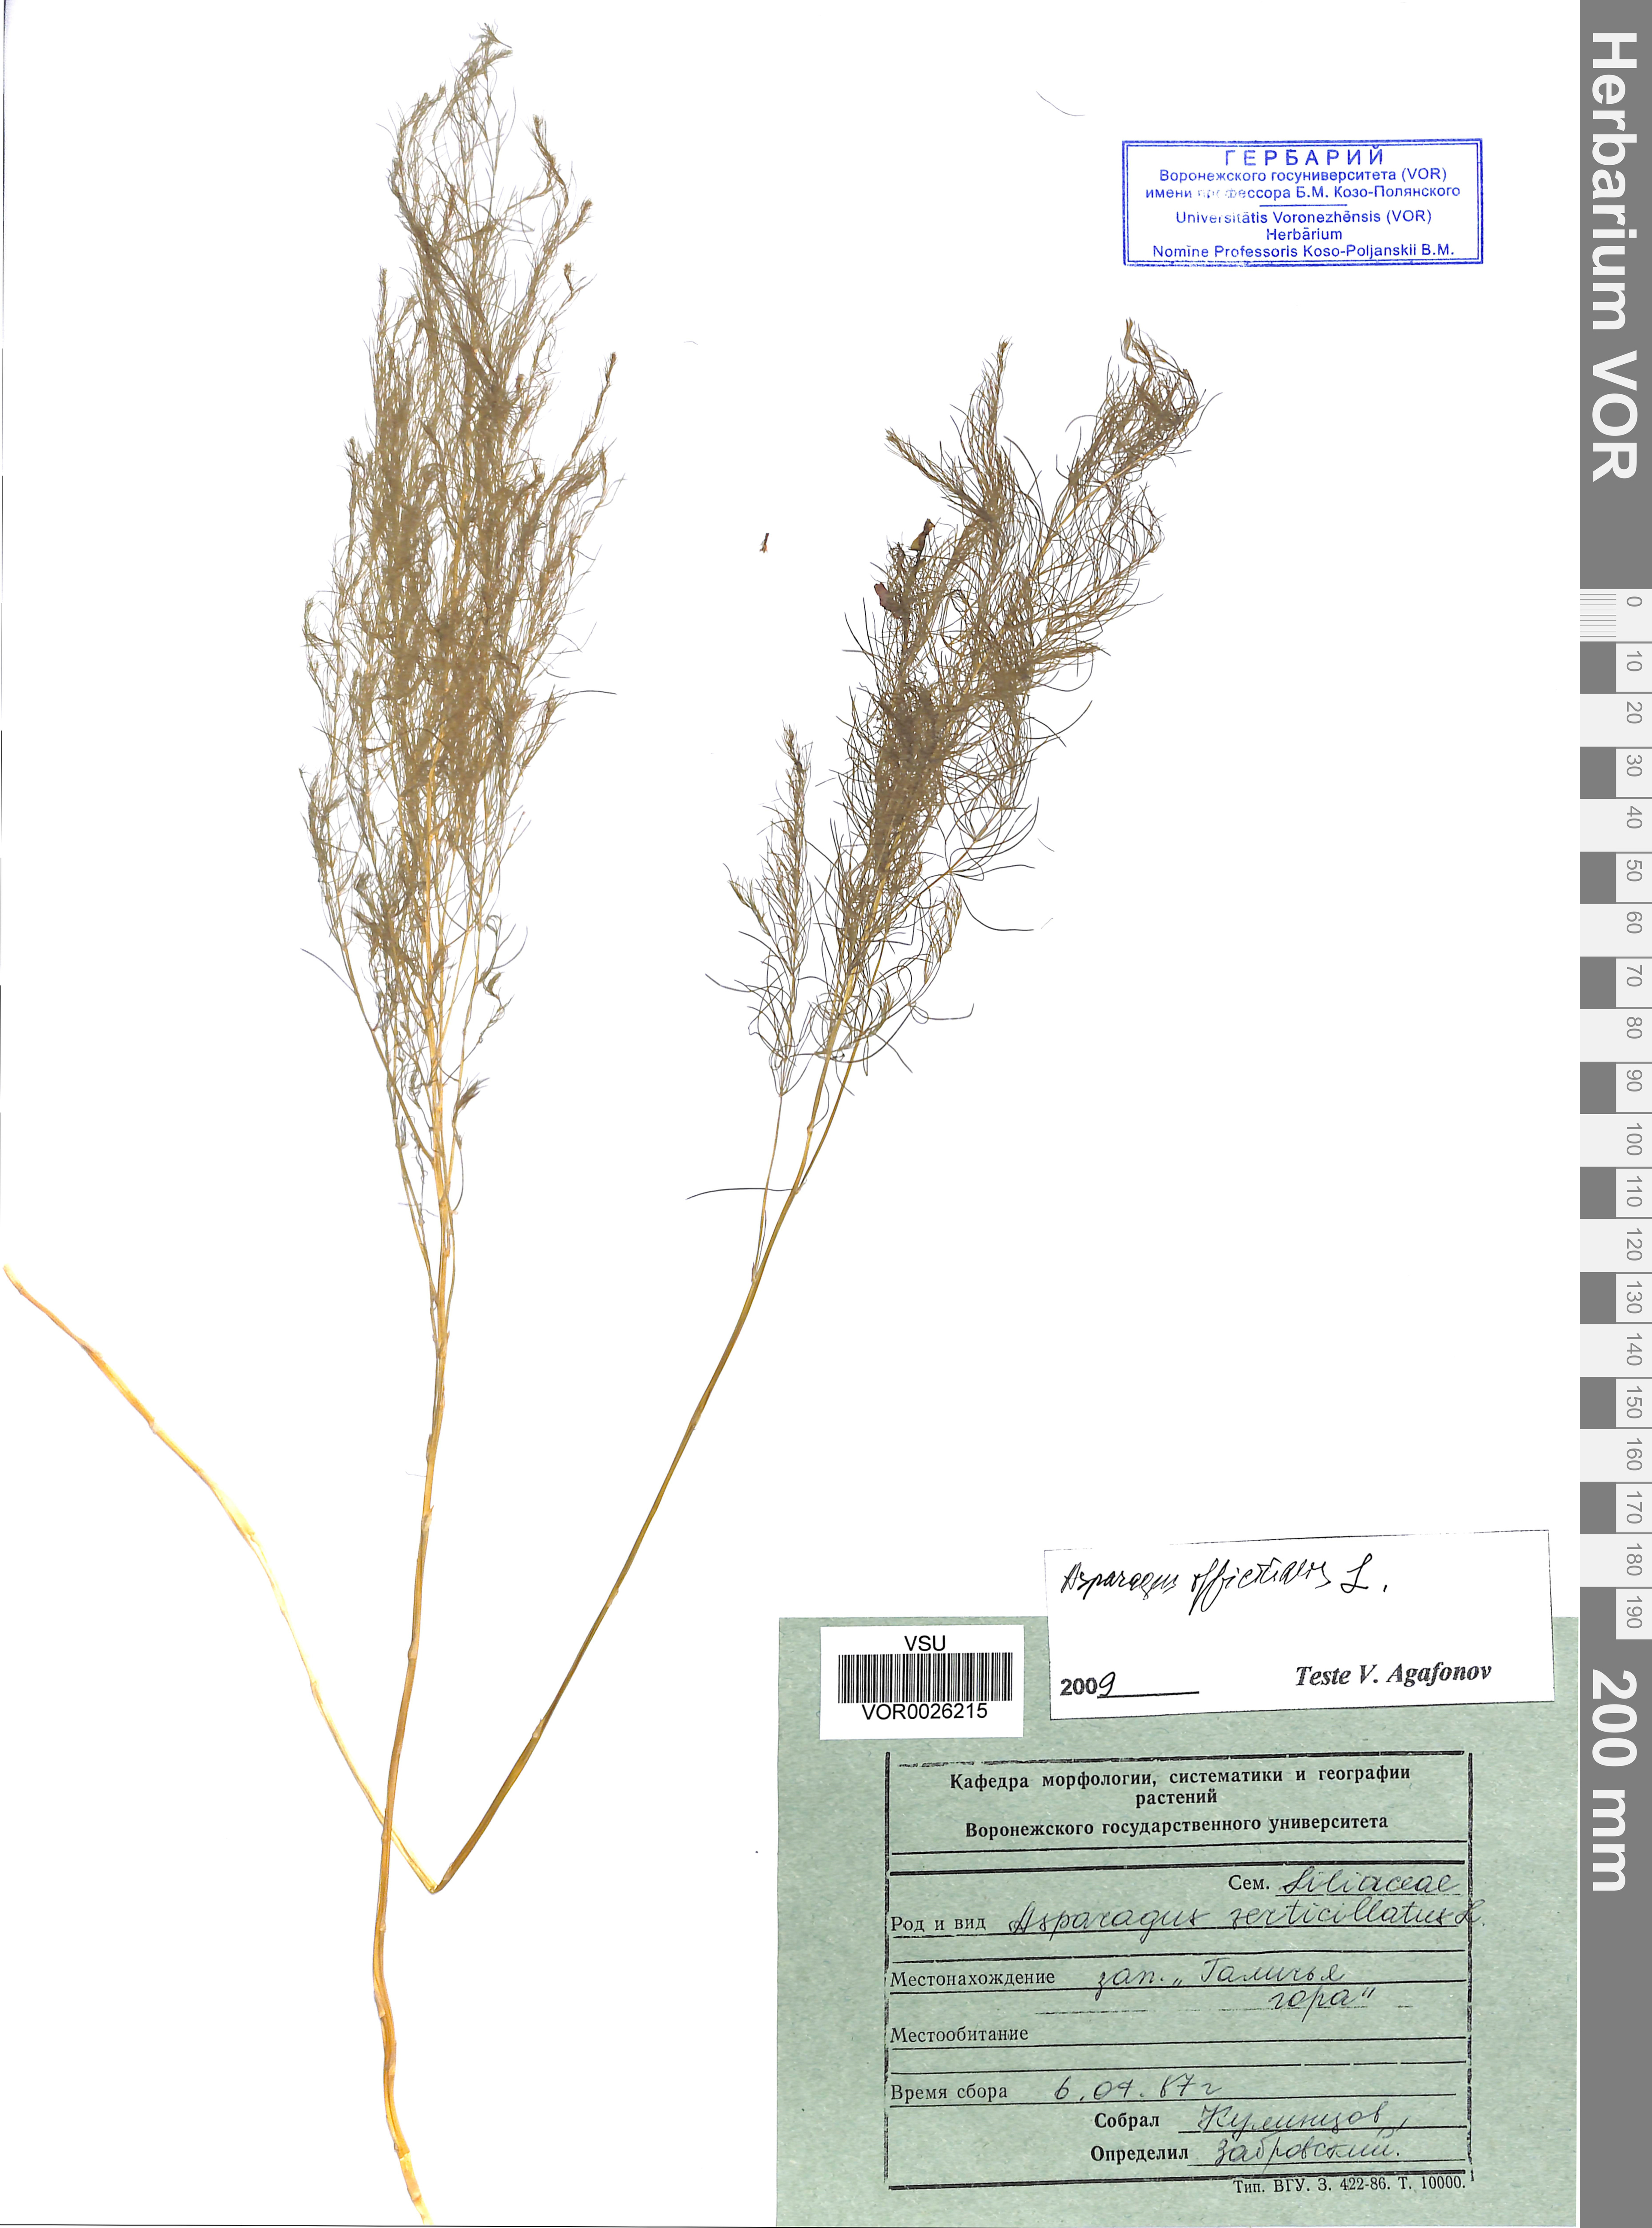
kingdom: Plantae
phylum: Tracheophyta
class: Liliopsida
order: Asparagales
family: Asparagaceae
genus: Asparagus
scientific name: Asparagus officinalis
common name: Garden asparagus
